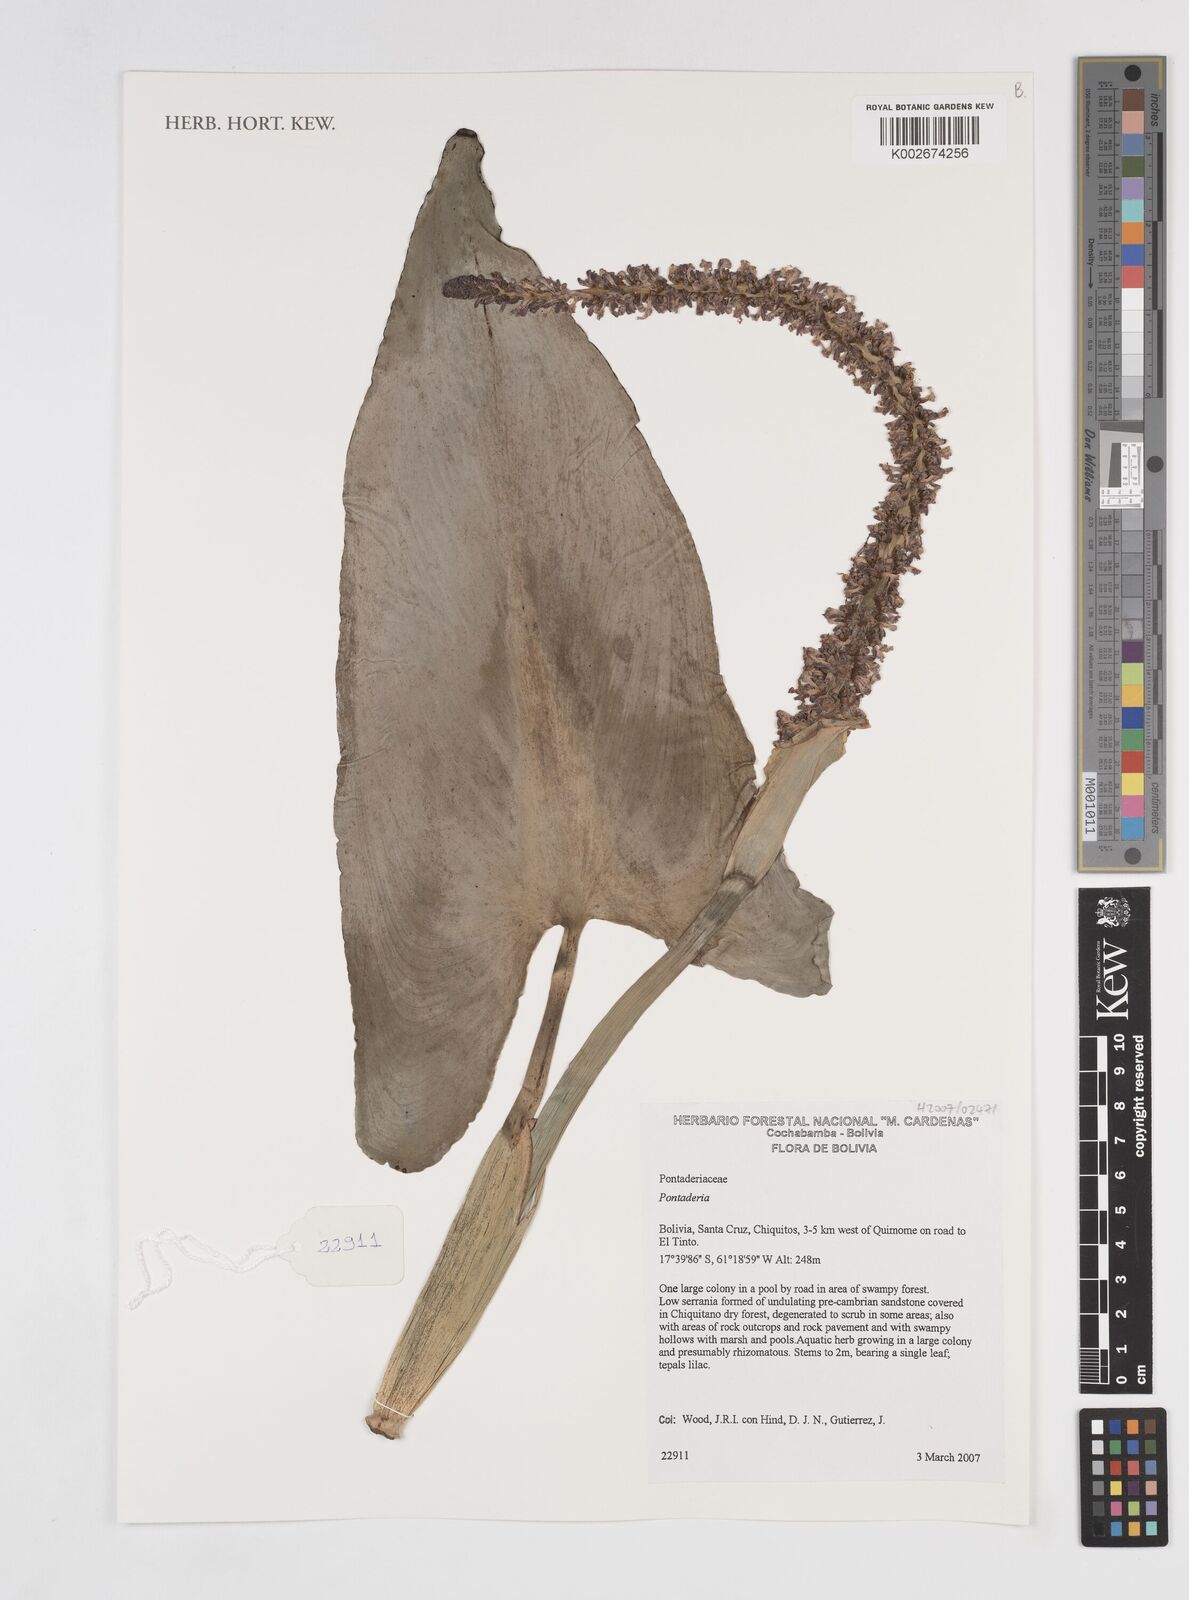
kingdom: Plantae
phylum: Tracheophyta
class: Liliopsida
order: Commelinales
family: Pontederiaceae
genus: Pontederia
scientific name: Pontederia
